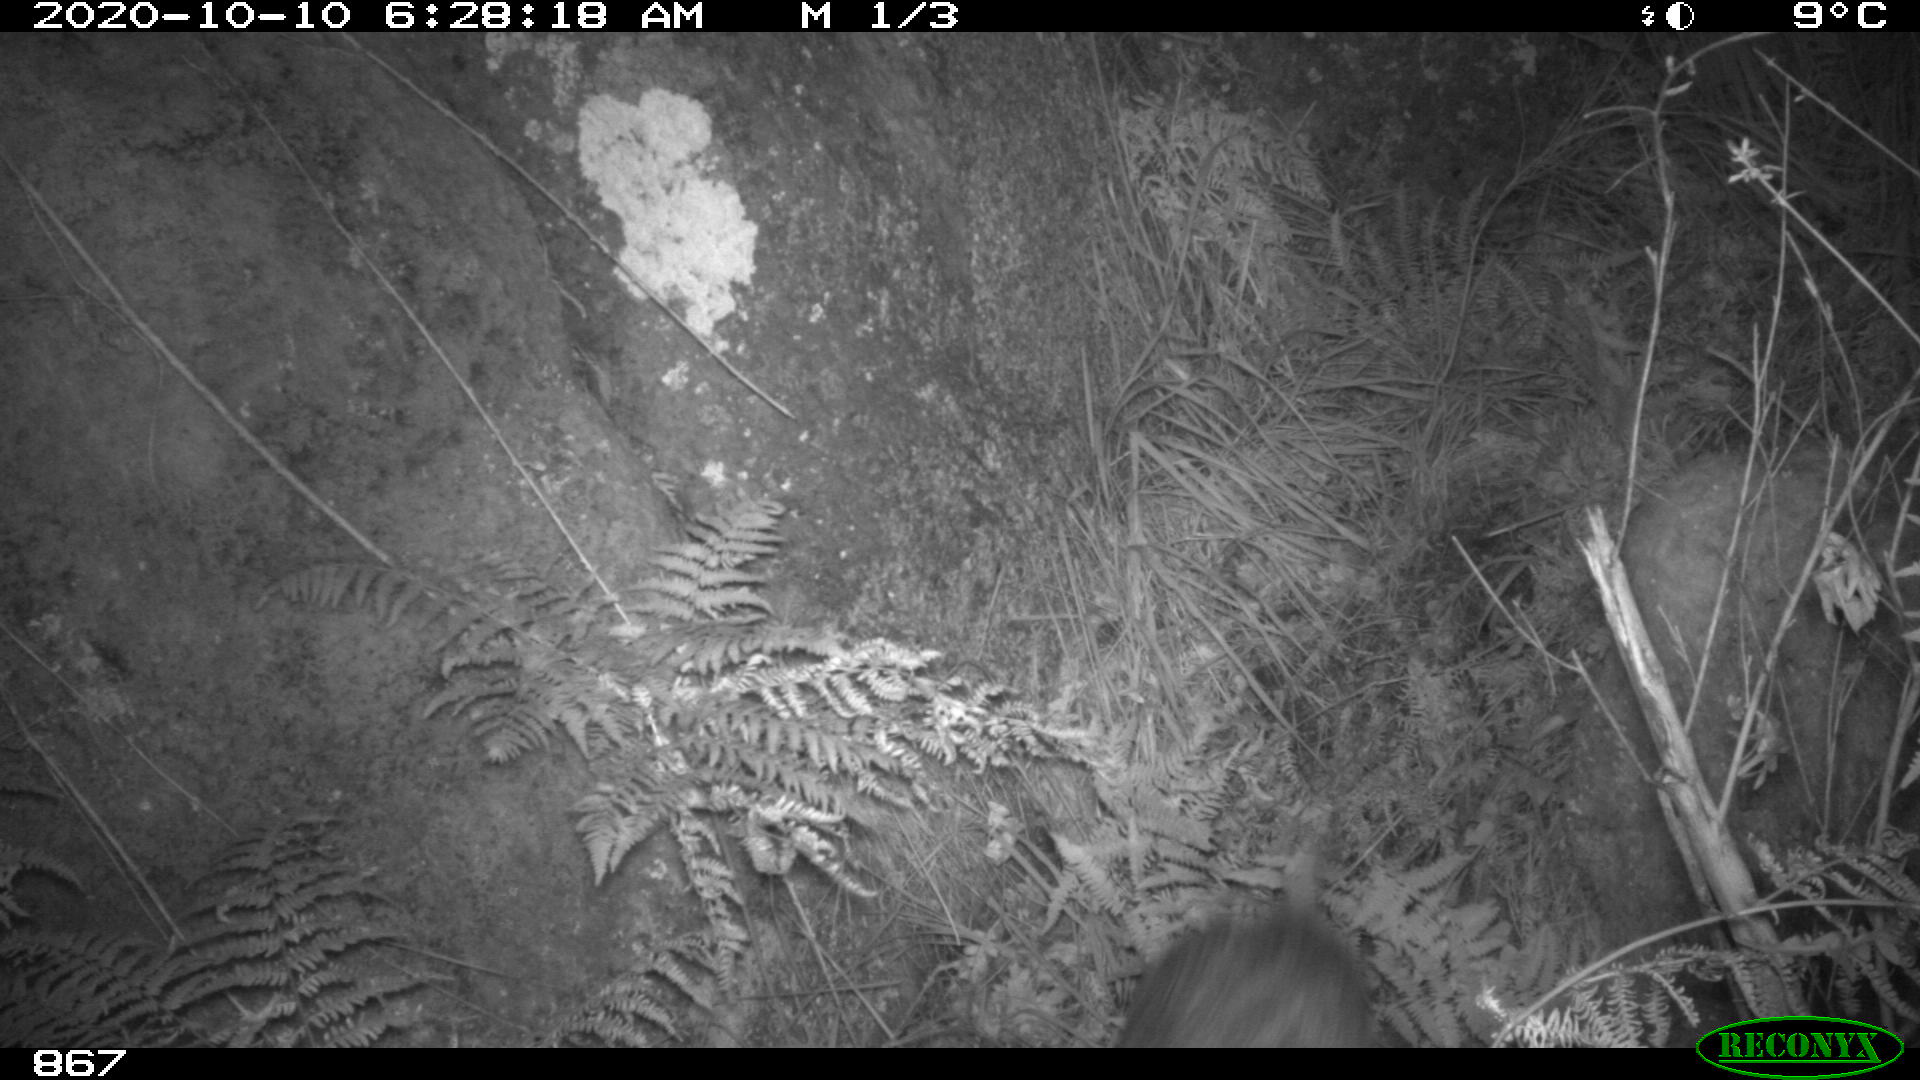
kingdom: Animalia
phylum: Chordata
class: Mammalia
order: Artiodactyla
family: Suidae
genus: Sus
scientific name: Sus scrofa
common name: Wild boar
